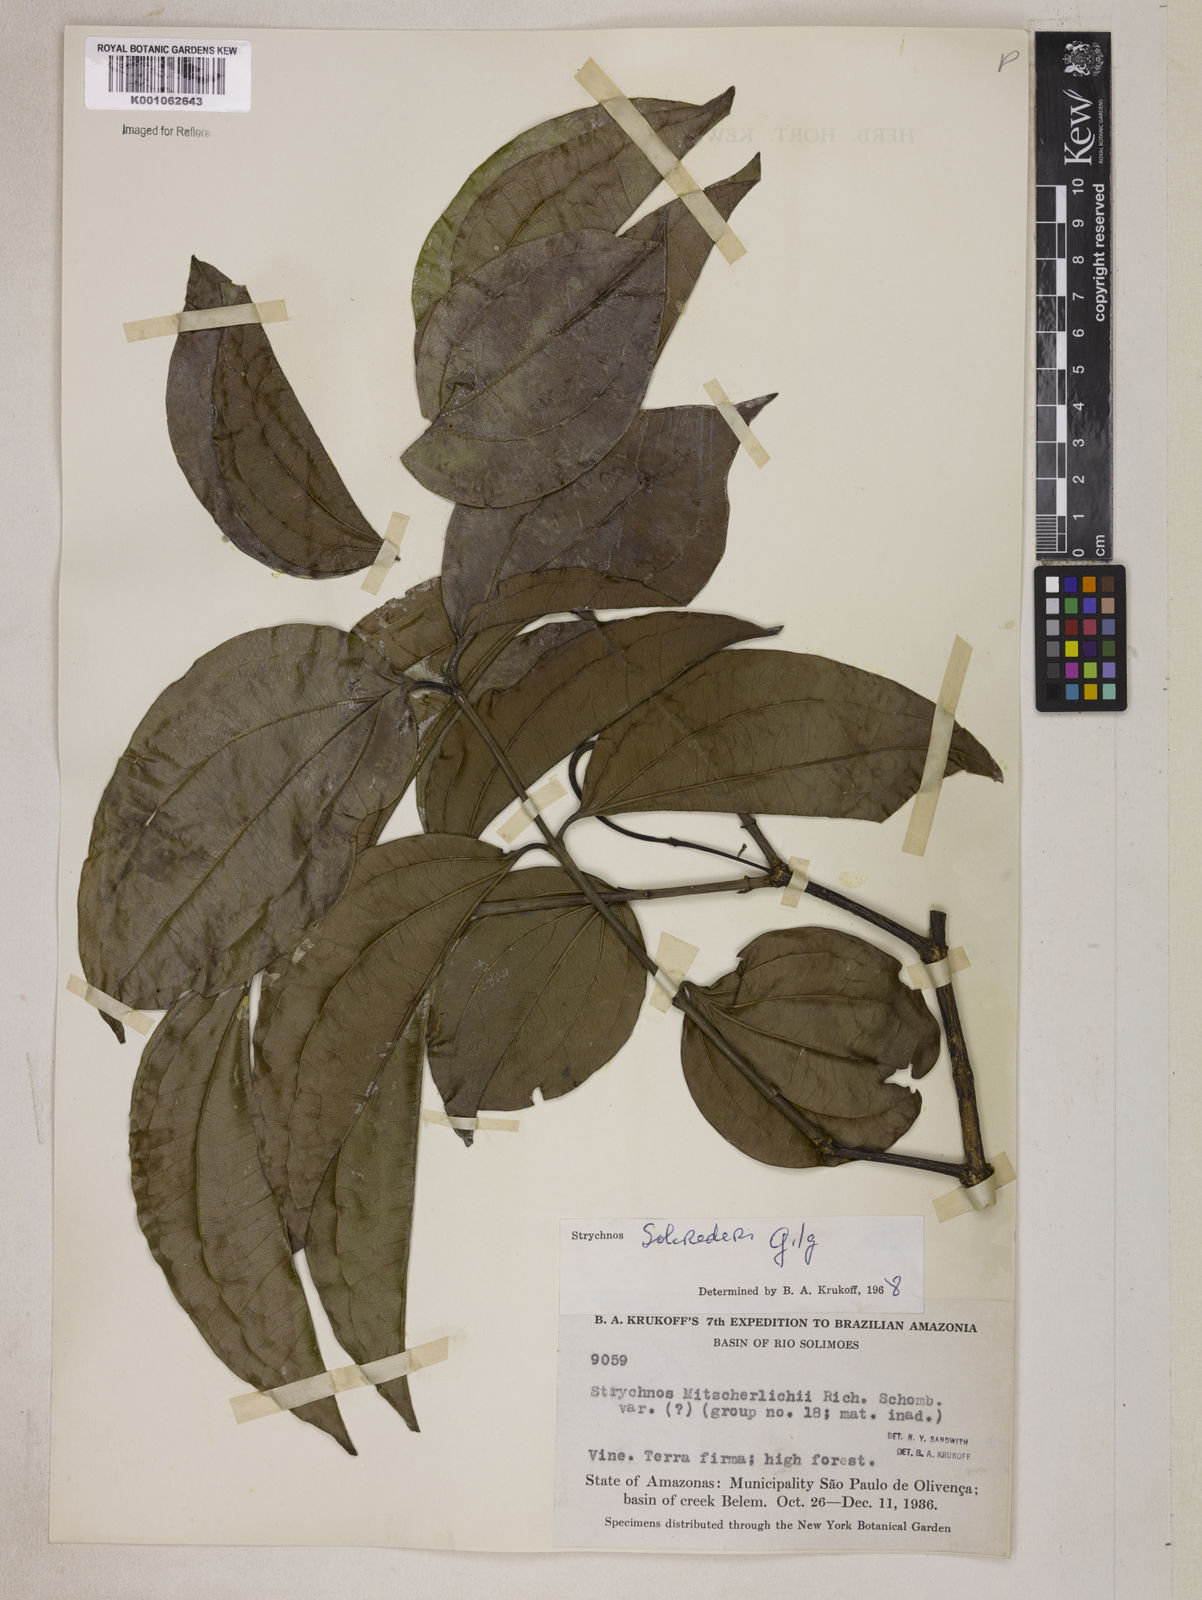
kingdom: Plantae
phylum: Tracheophyta
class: Magnoliopsida
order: Gentianales
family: Loganiaceae
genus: Strychnos
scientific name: Strychnos solerederi
